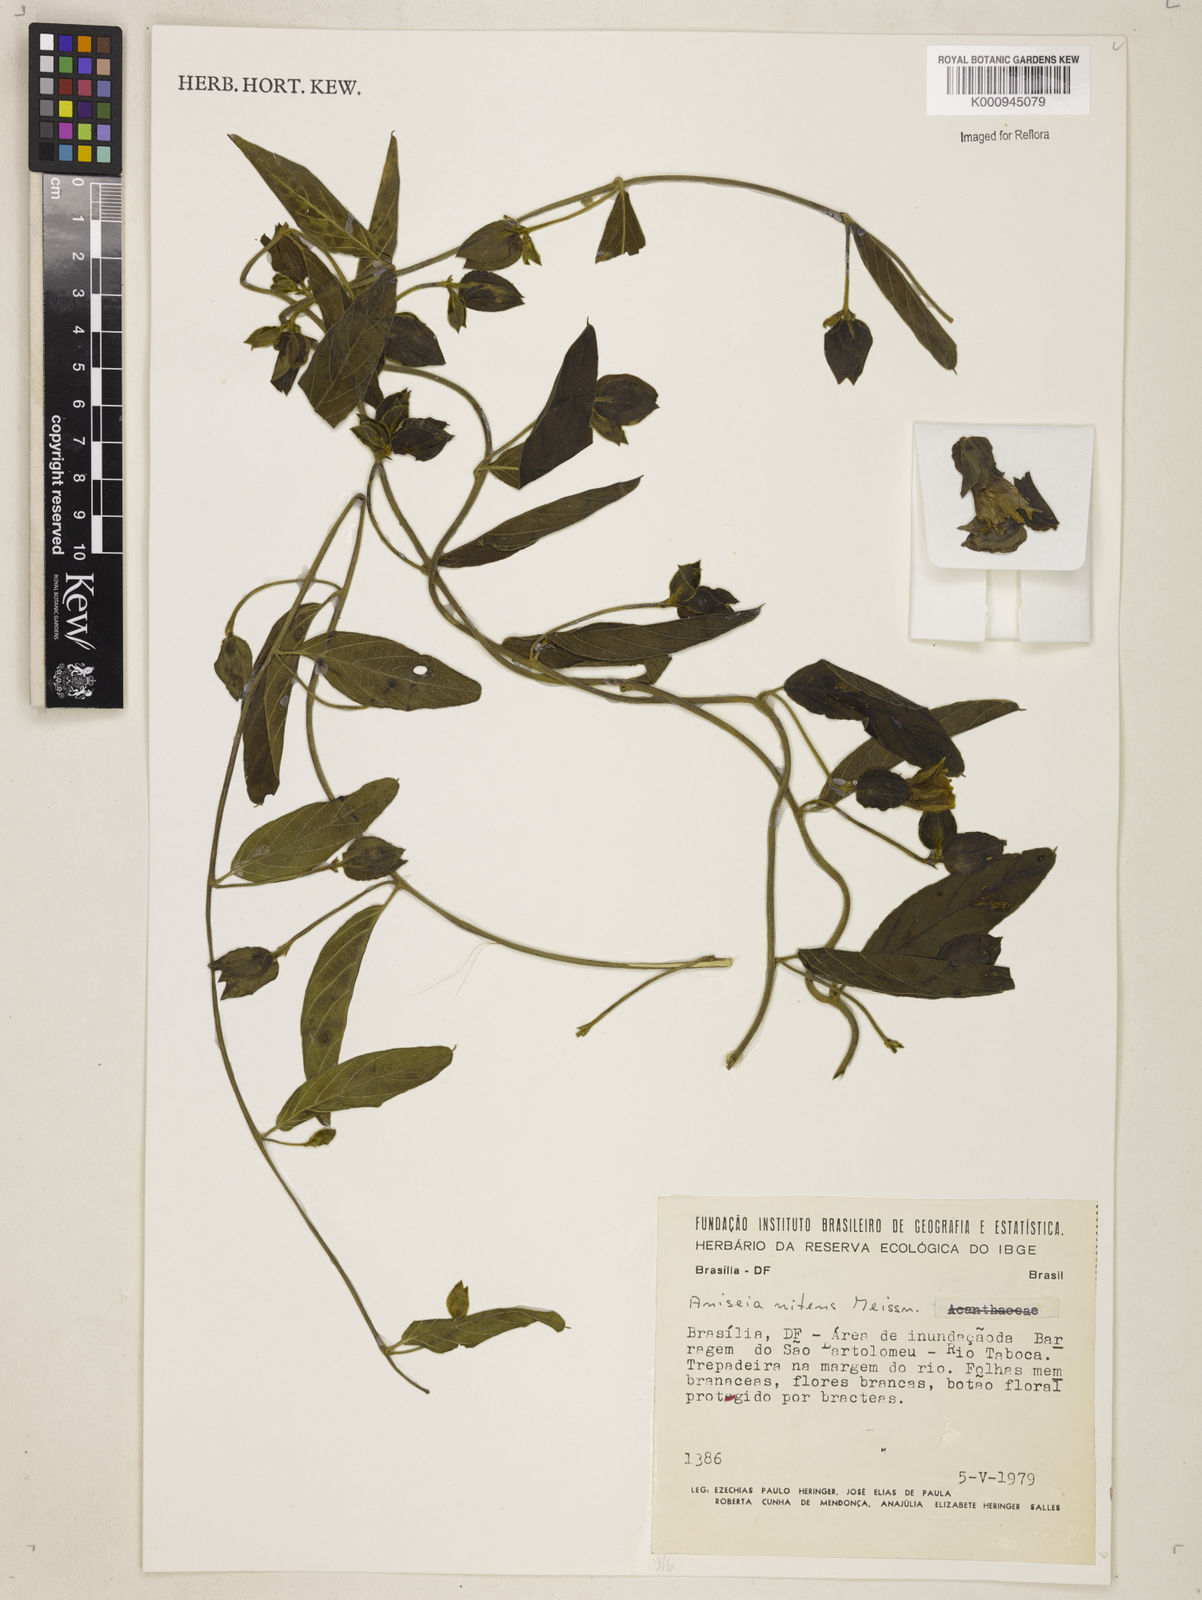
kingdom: Plantae
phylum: Tracheophyta
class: Magnoliopsida
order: Solanales
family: Convolvulaceae
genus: Aniseia
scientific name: Aniseia martinicensis
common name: Kulayadambu
